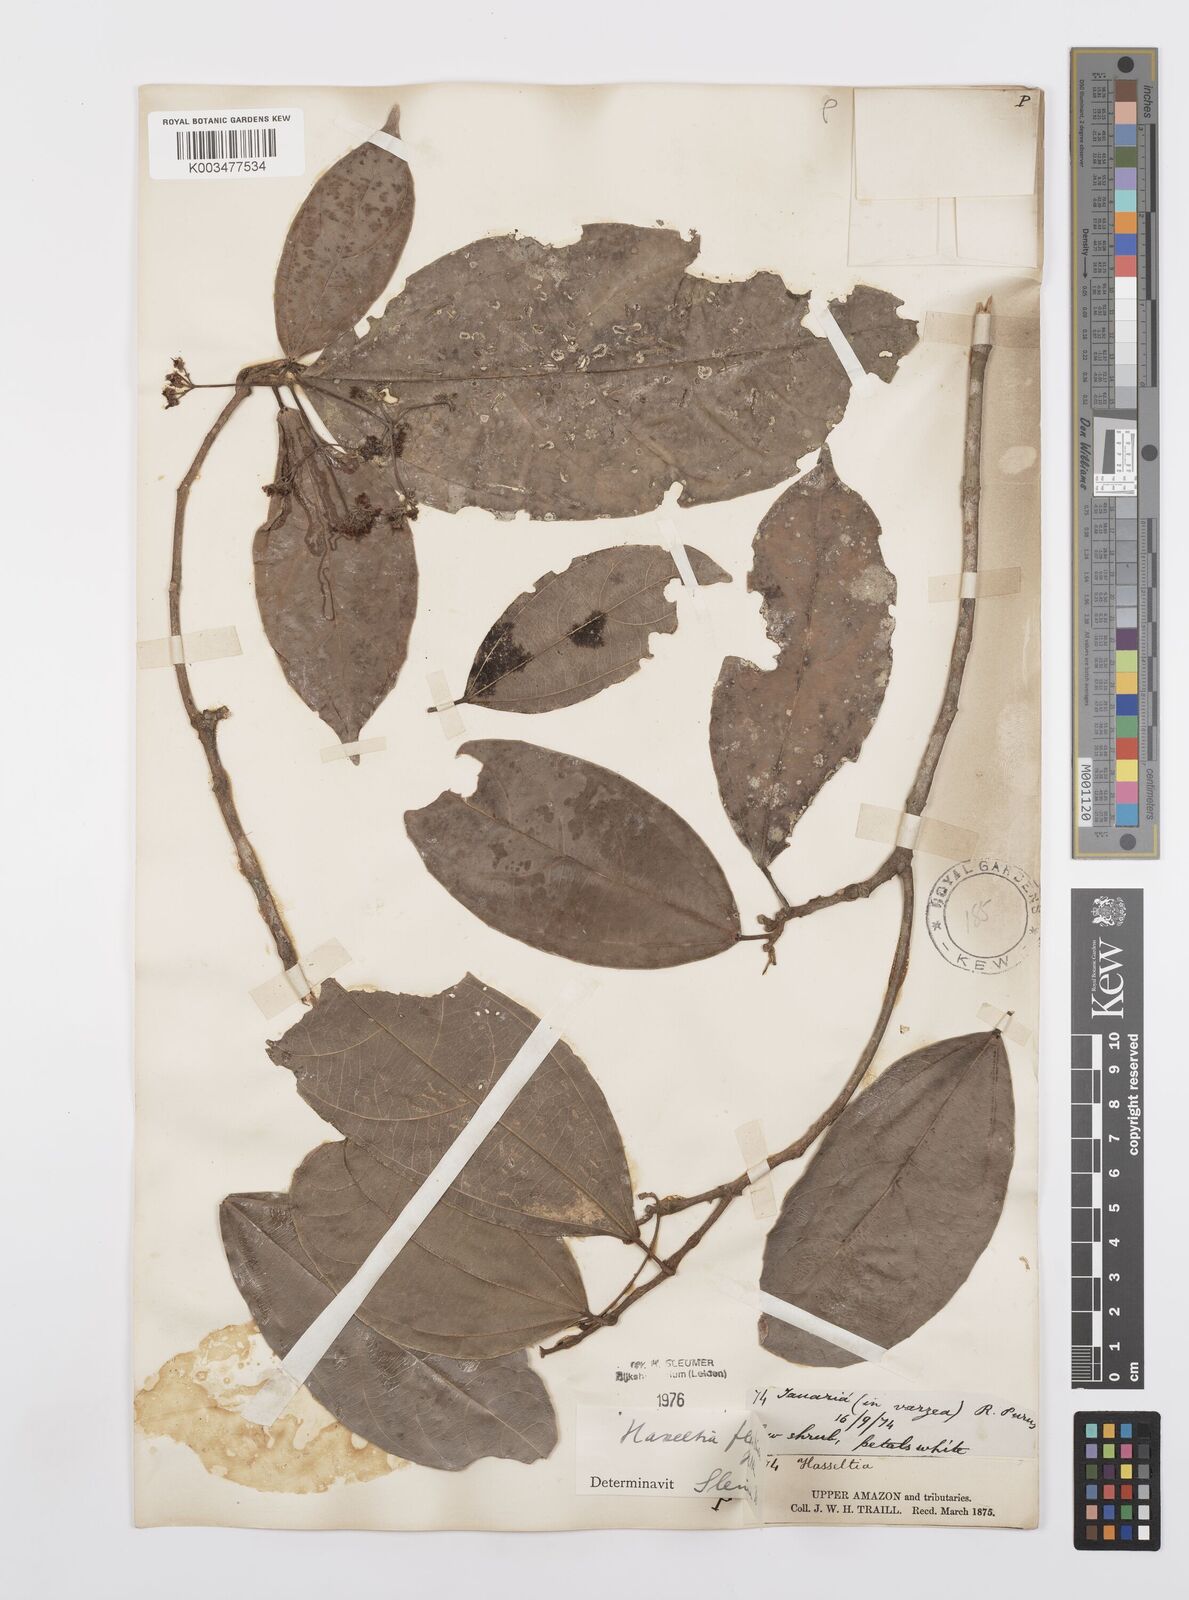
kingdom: Plantae
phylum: Tracheophyta
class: Magnoliopsida
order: Malpighiales
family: Salicaceae
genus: Hasseltia
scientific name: Hasseltia floribunda
